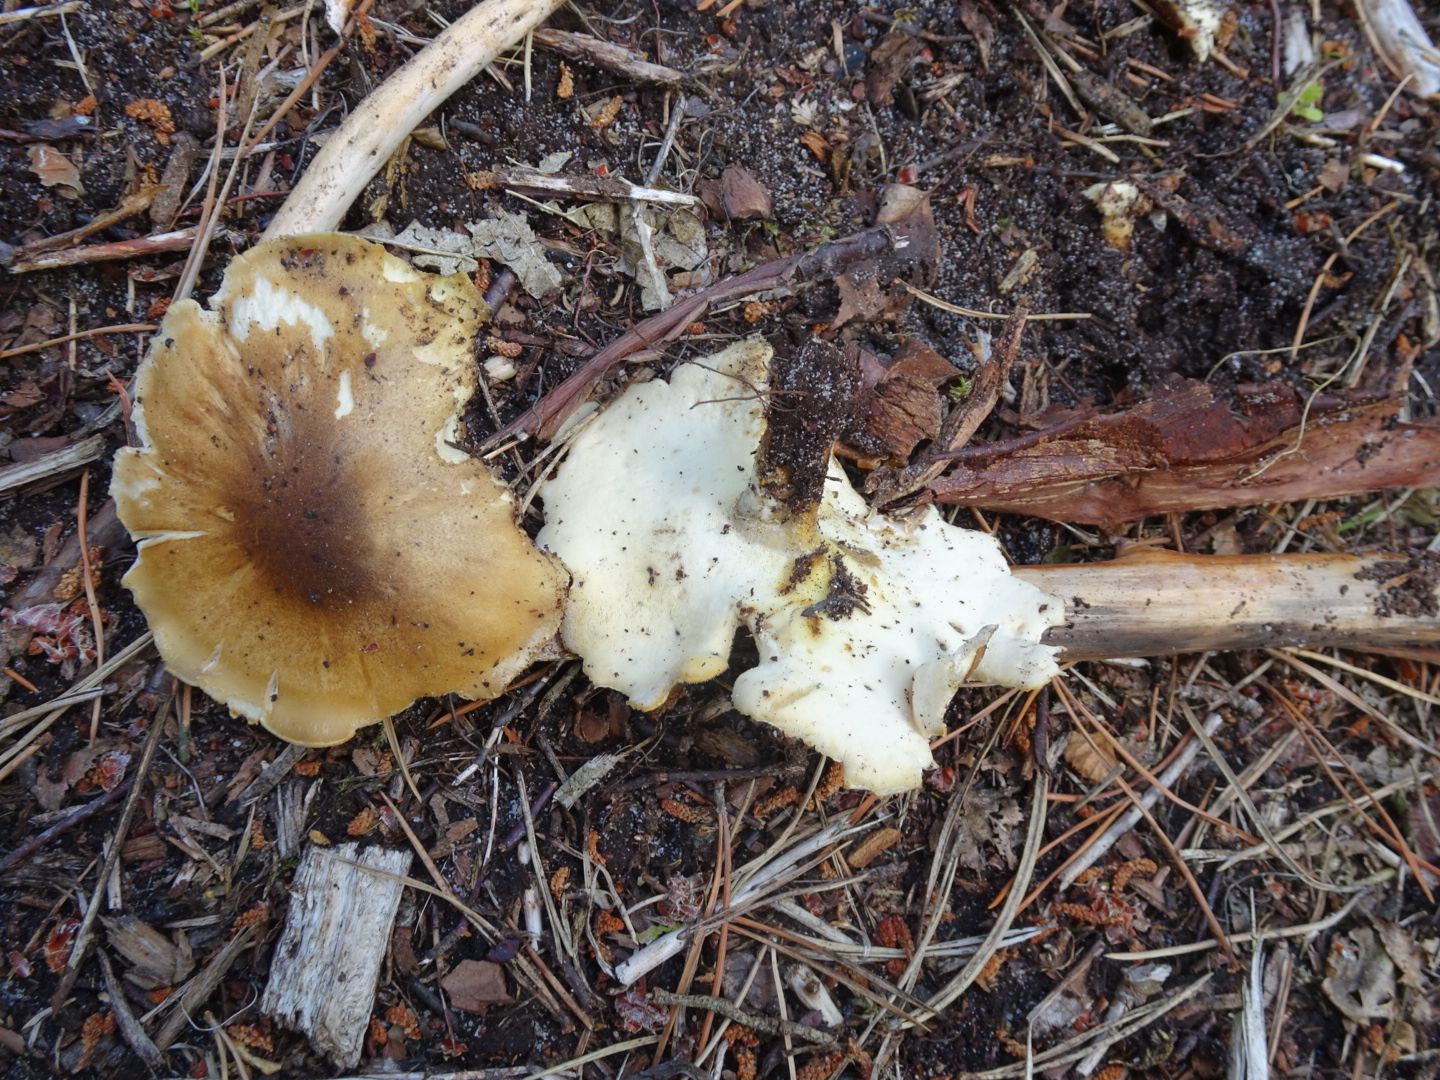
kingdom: Fungi
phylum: Basidiomycota
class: Agaricomycetes
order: Polyporales
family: Polyporaceae
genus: Cerioporus
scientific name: Cerioporus varius
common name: foranderlig stilkporesvamp
